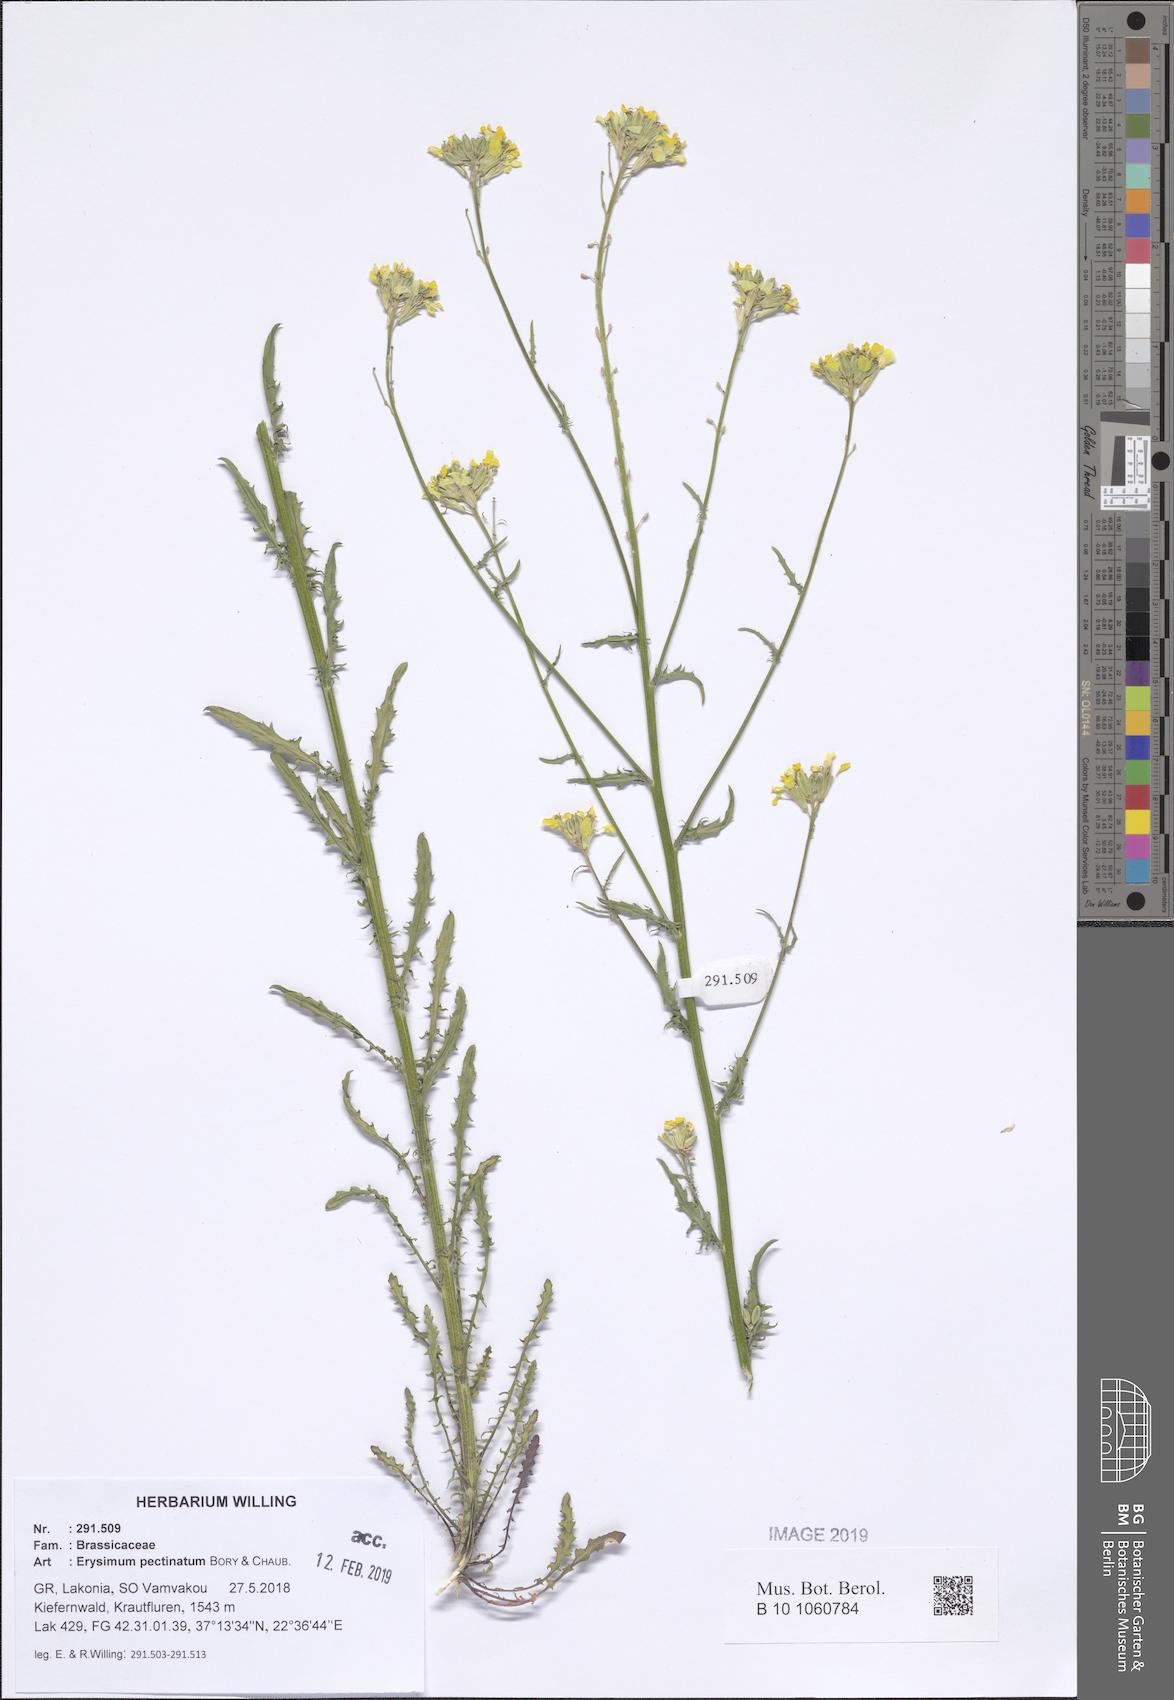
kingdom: Plantae
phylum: Tracheophyta
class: Magnoliopsida
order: Brassicales
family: Brassicaceae
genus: Erysimum
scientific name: Erysimum pectinatum
